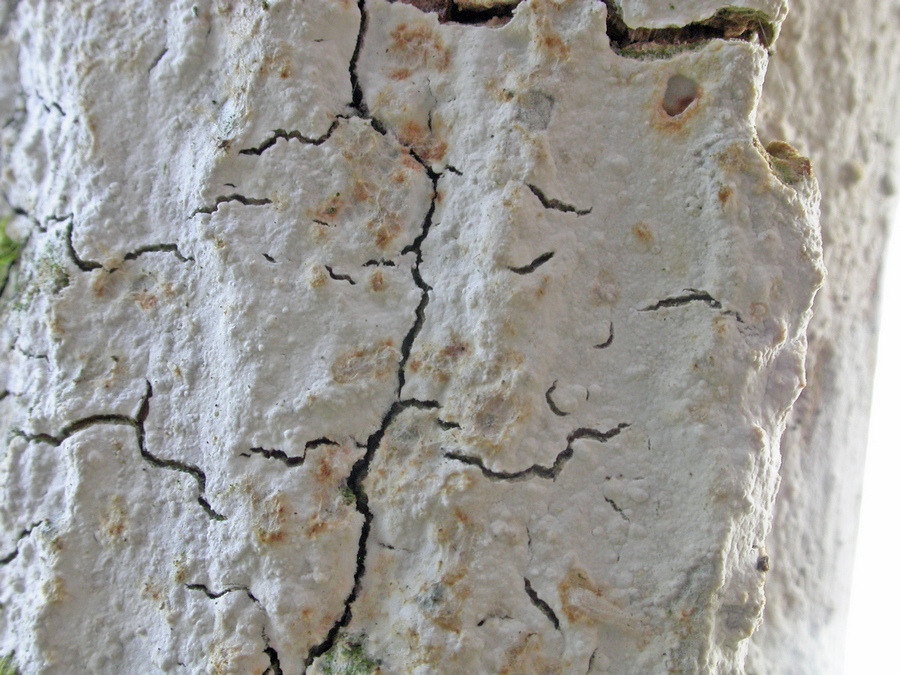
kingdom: Fungi
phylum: Basidiomycota
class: Agaricomycetes
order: Corticiales
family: Corticiaceae
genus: Lyomyces
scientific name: Lyomyces sambuci
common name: almindelig hyldehinde
